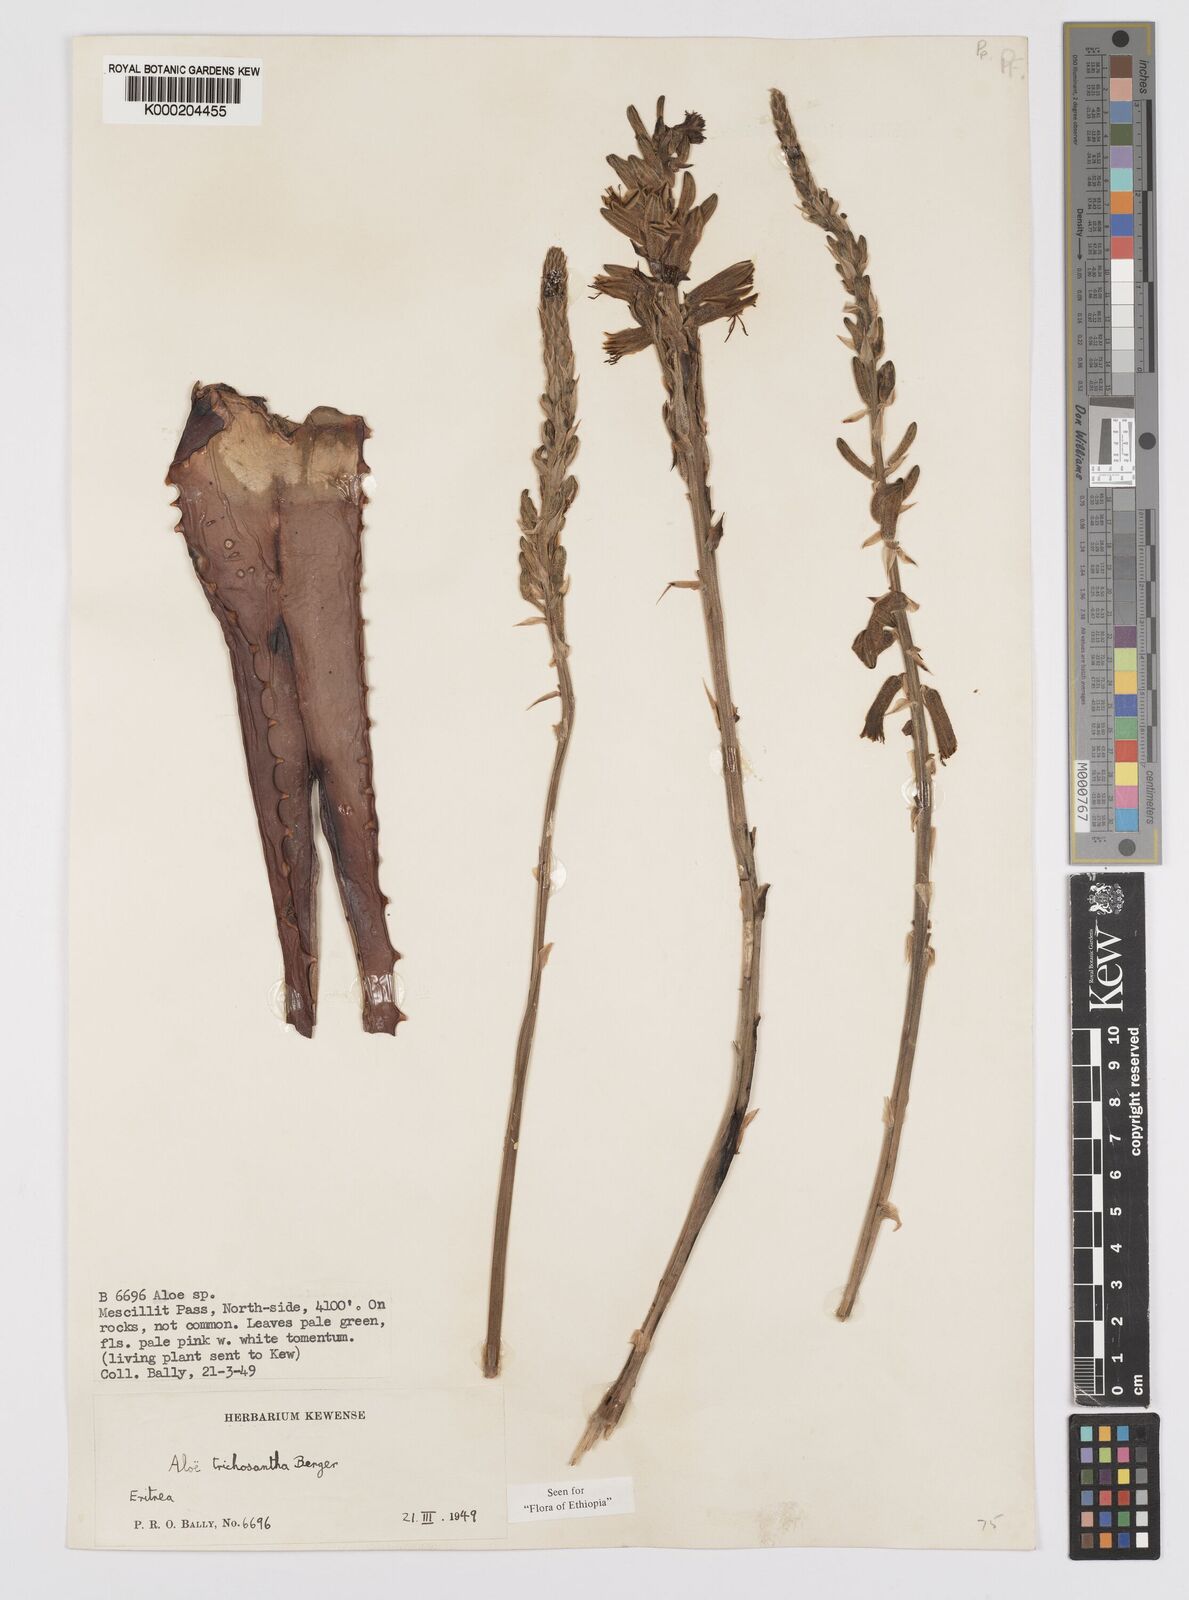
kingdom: Plantae
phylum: Tracheophyta
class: Liliopsida
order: Asparagales
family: Asphodelaceae
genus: Aloe
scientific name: Aloe trichosantha
